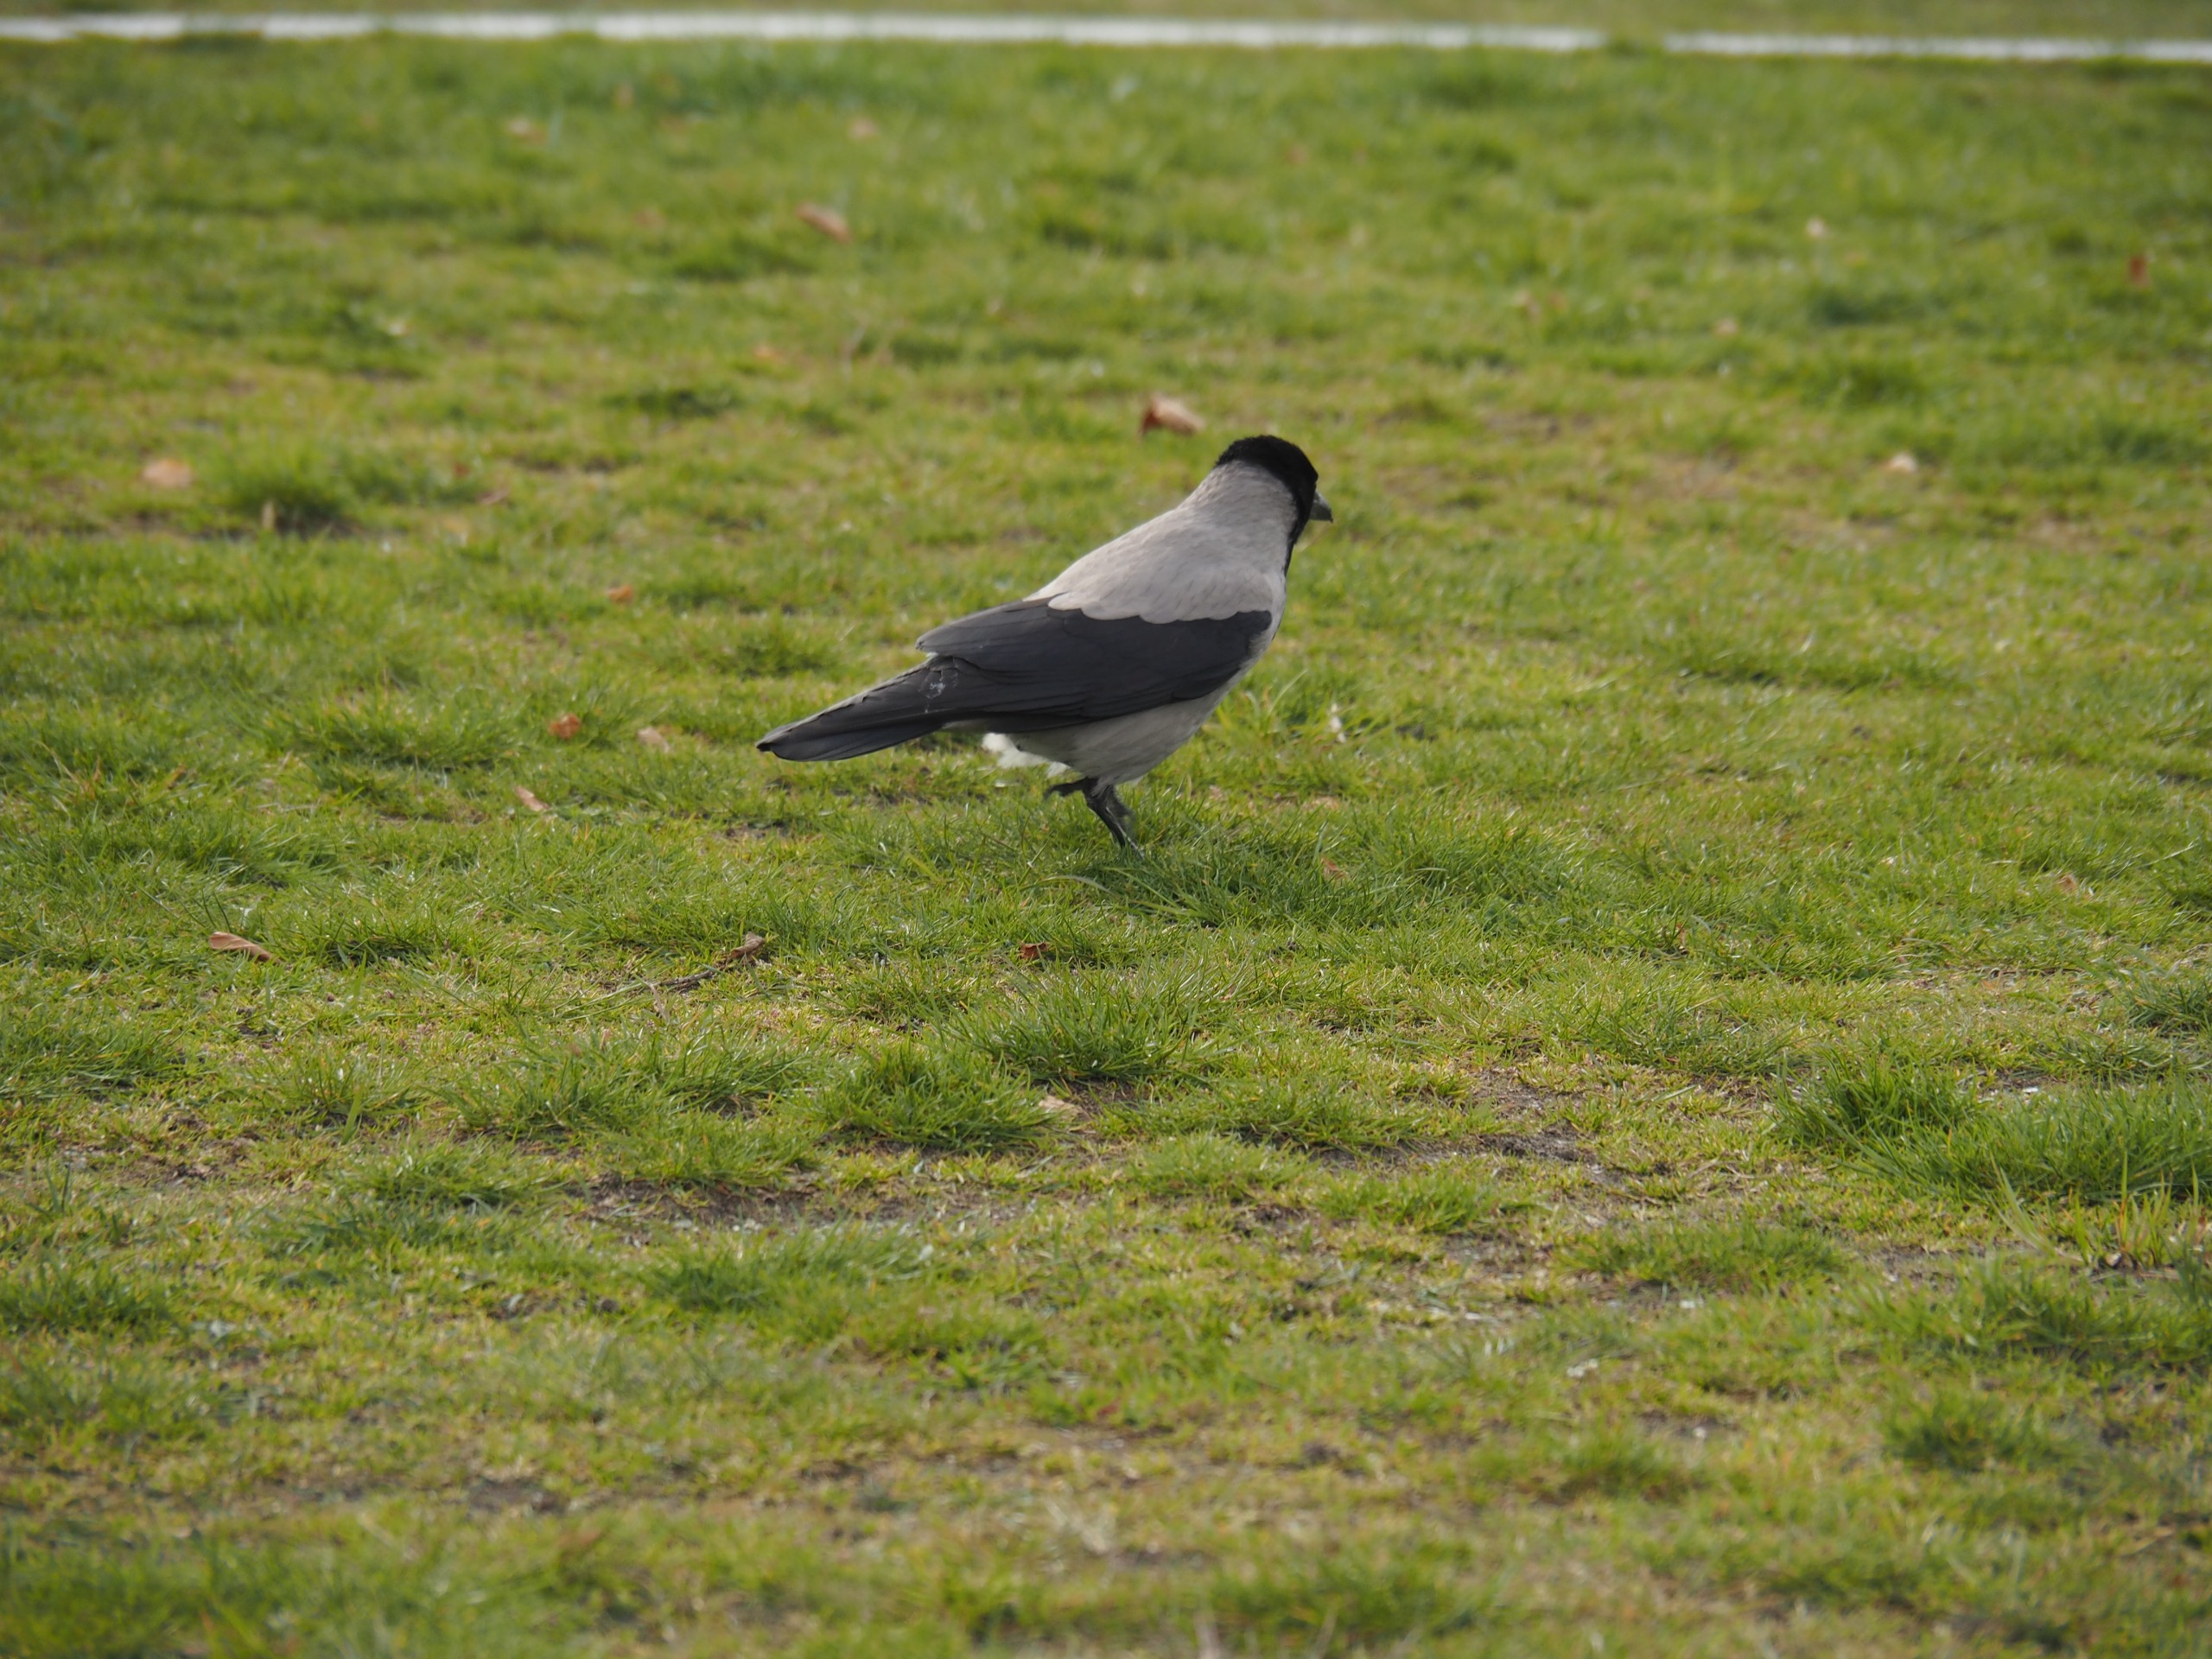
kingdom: Animalia
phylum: Chordata
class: Aves
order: Passeriformes
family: Corvidae
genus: Corvus
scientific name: Corvus cornix
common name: Gråkrage
